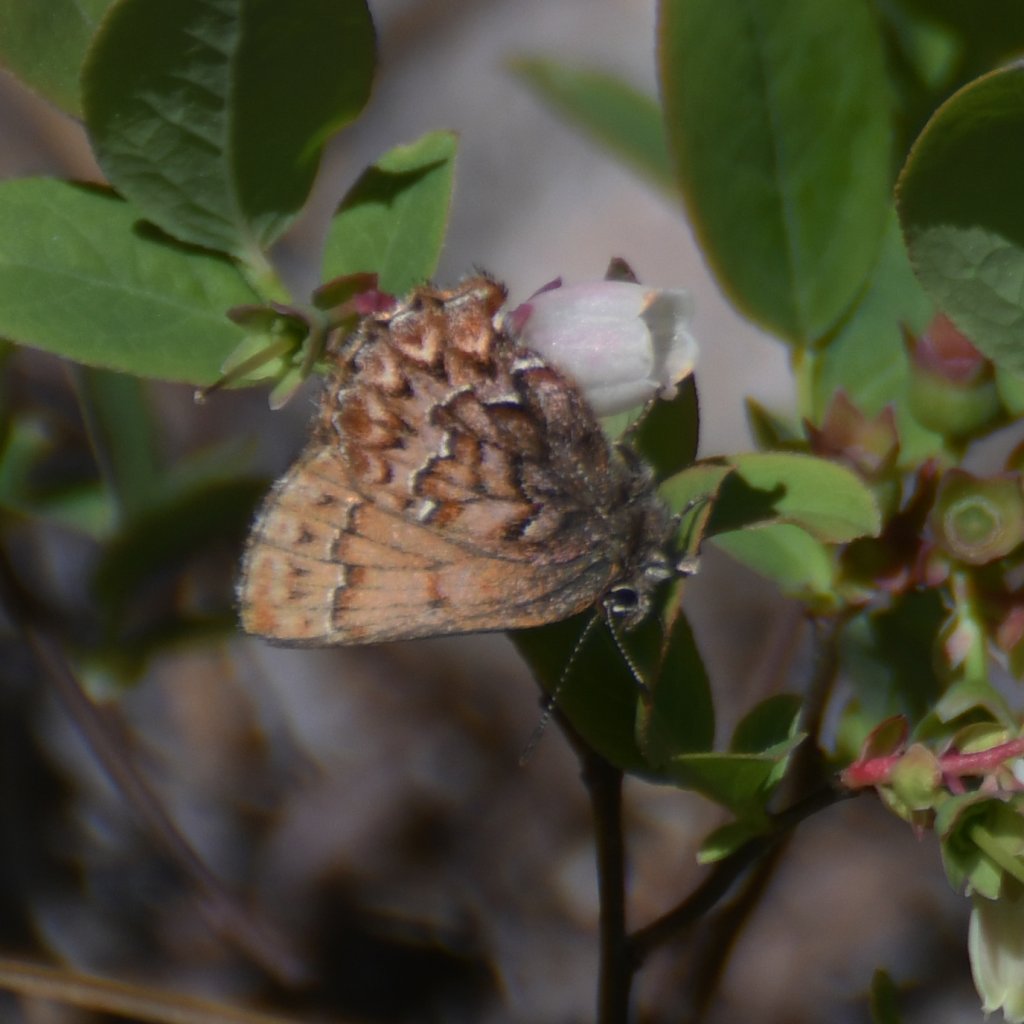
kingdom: Animalia
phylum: Arthropoda
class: Insecta
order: Lepidoptera
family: Lycaenidae
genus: Incisalia
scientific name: Incisalia eryphon
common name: Western Pine Elfin
